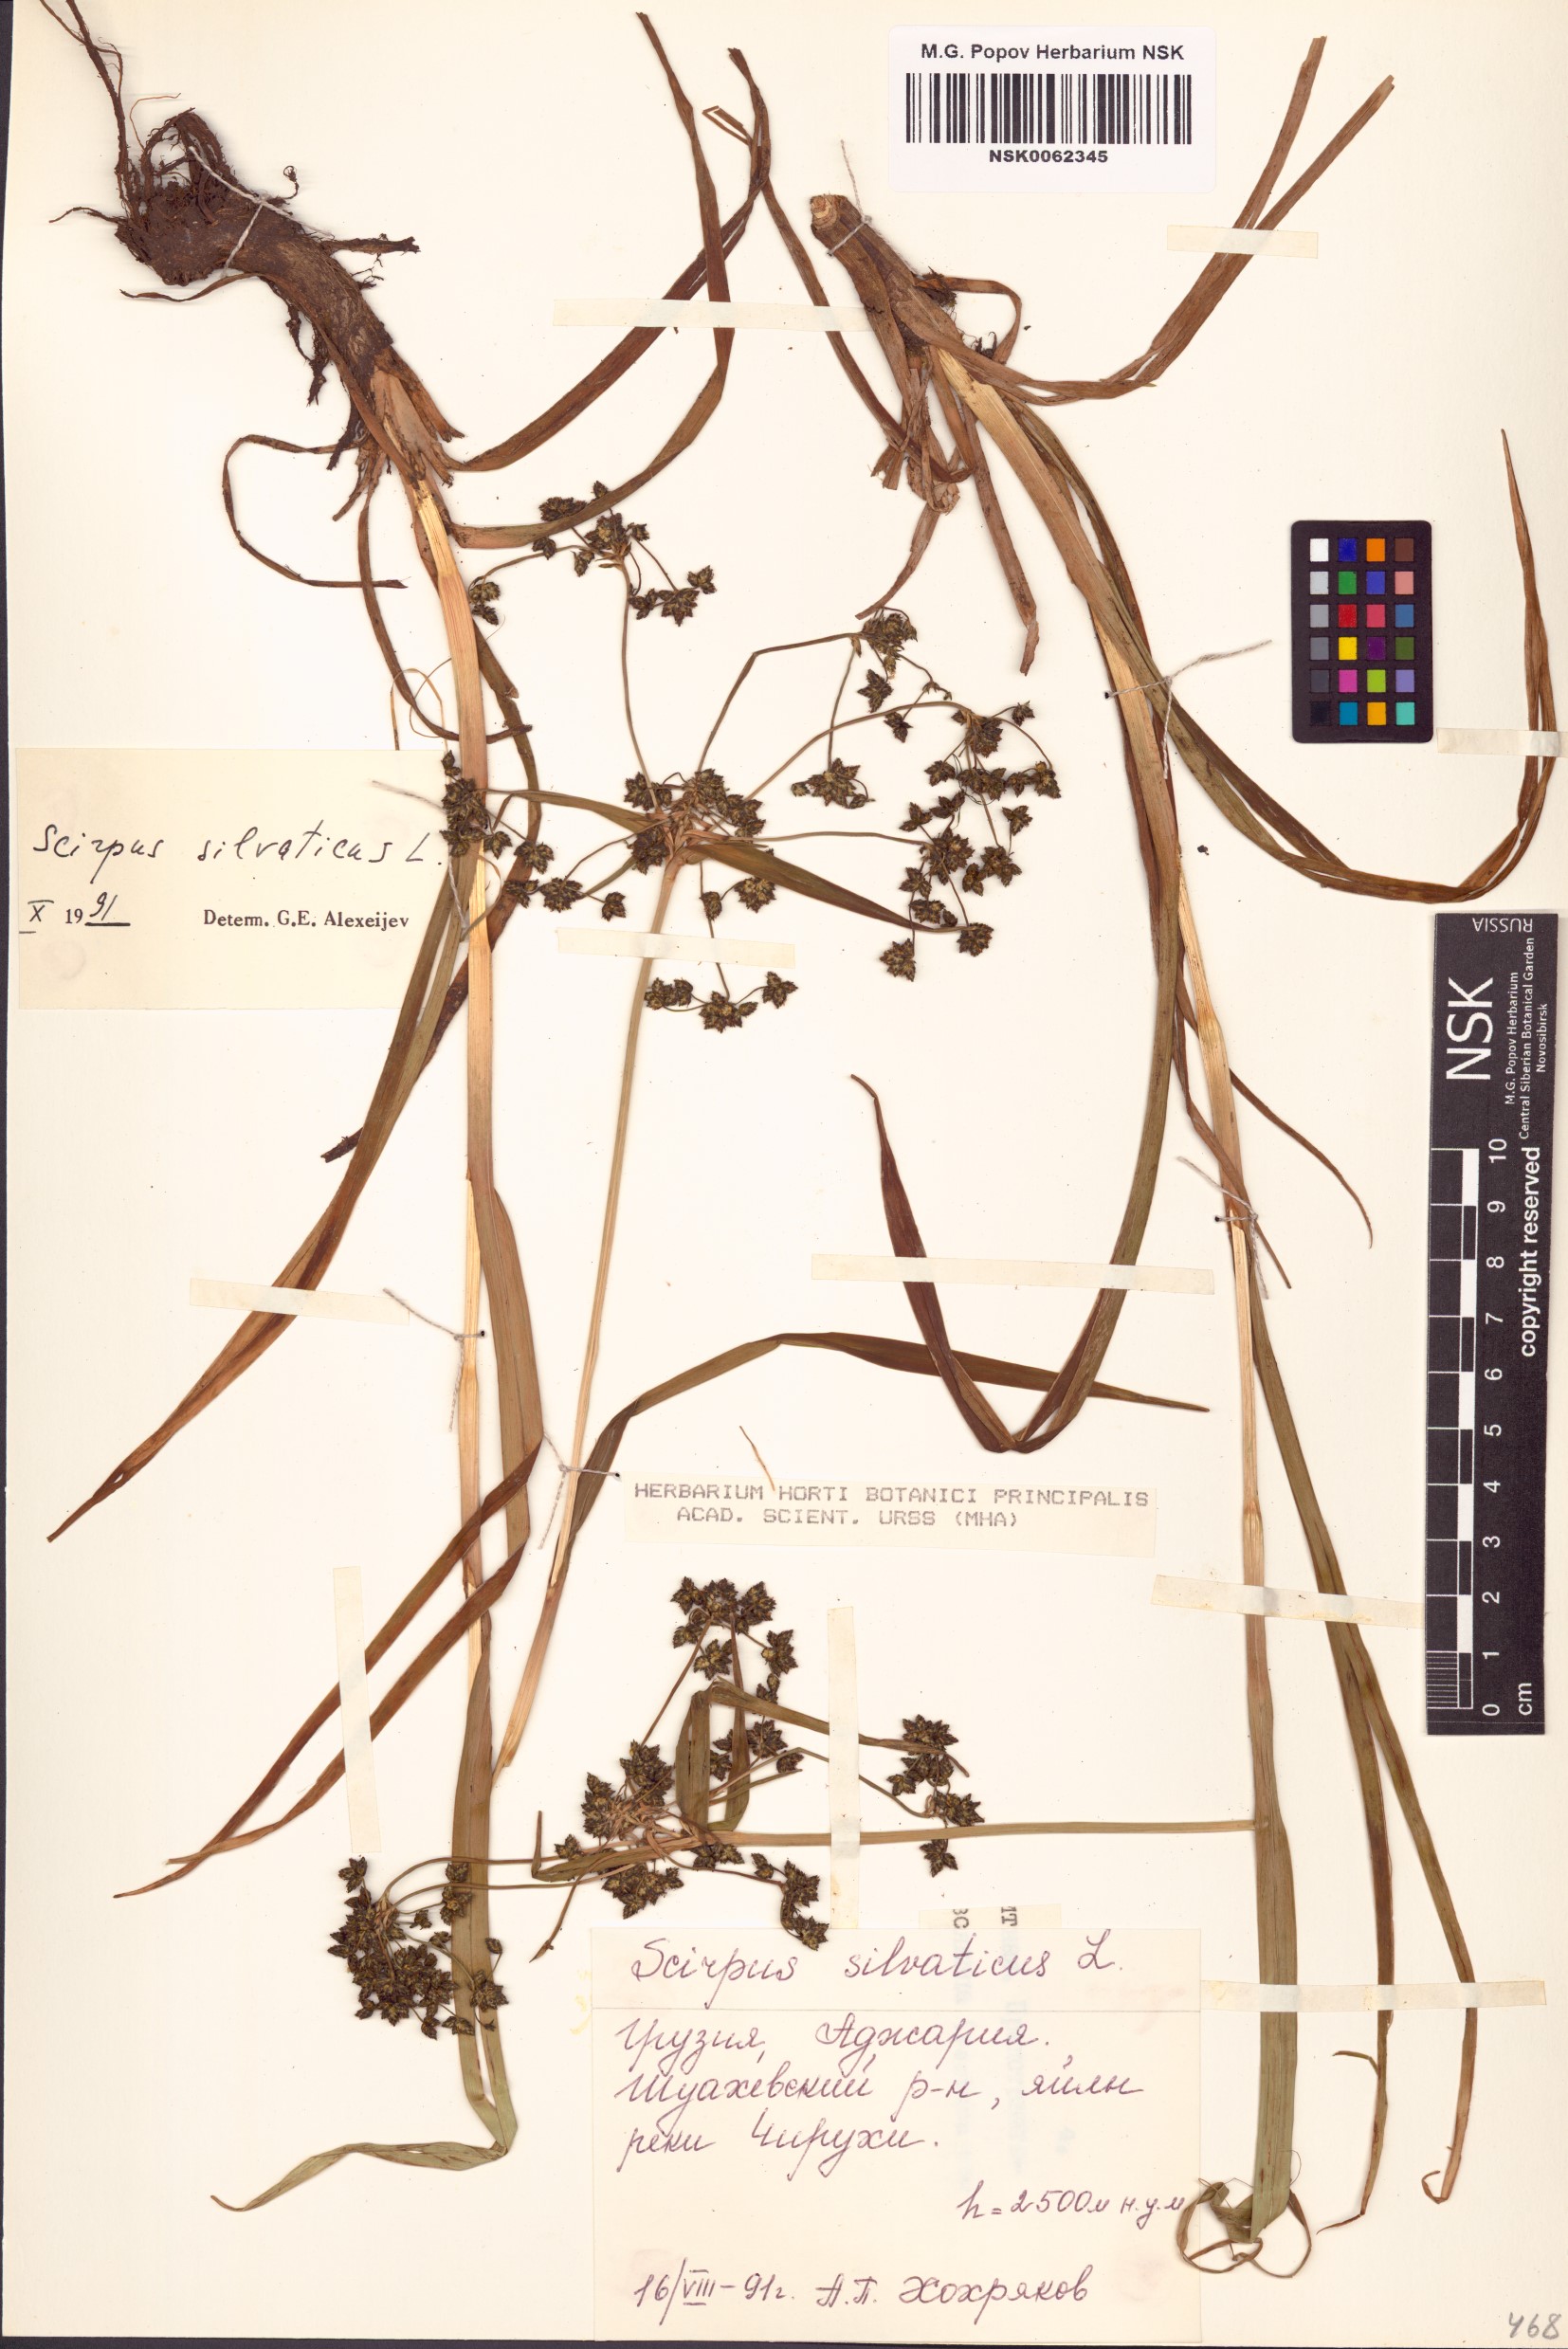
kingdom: Plantae
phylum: Tracheophyta
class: Liliopsida
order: Poales
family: Cyperaceae
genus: Scirpus
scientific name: Scirpus sylvaticus
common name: Wood club-rush
